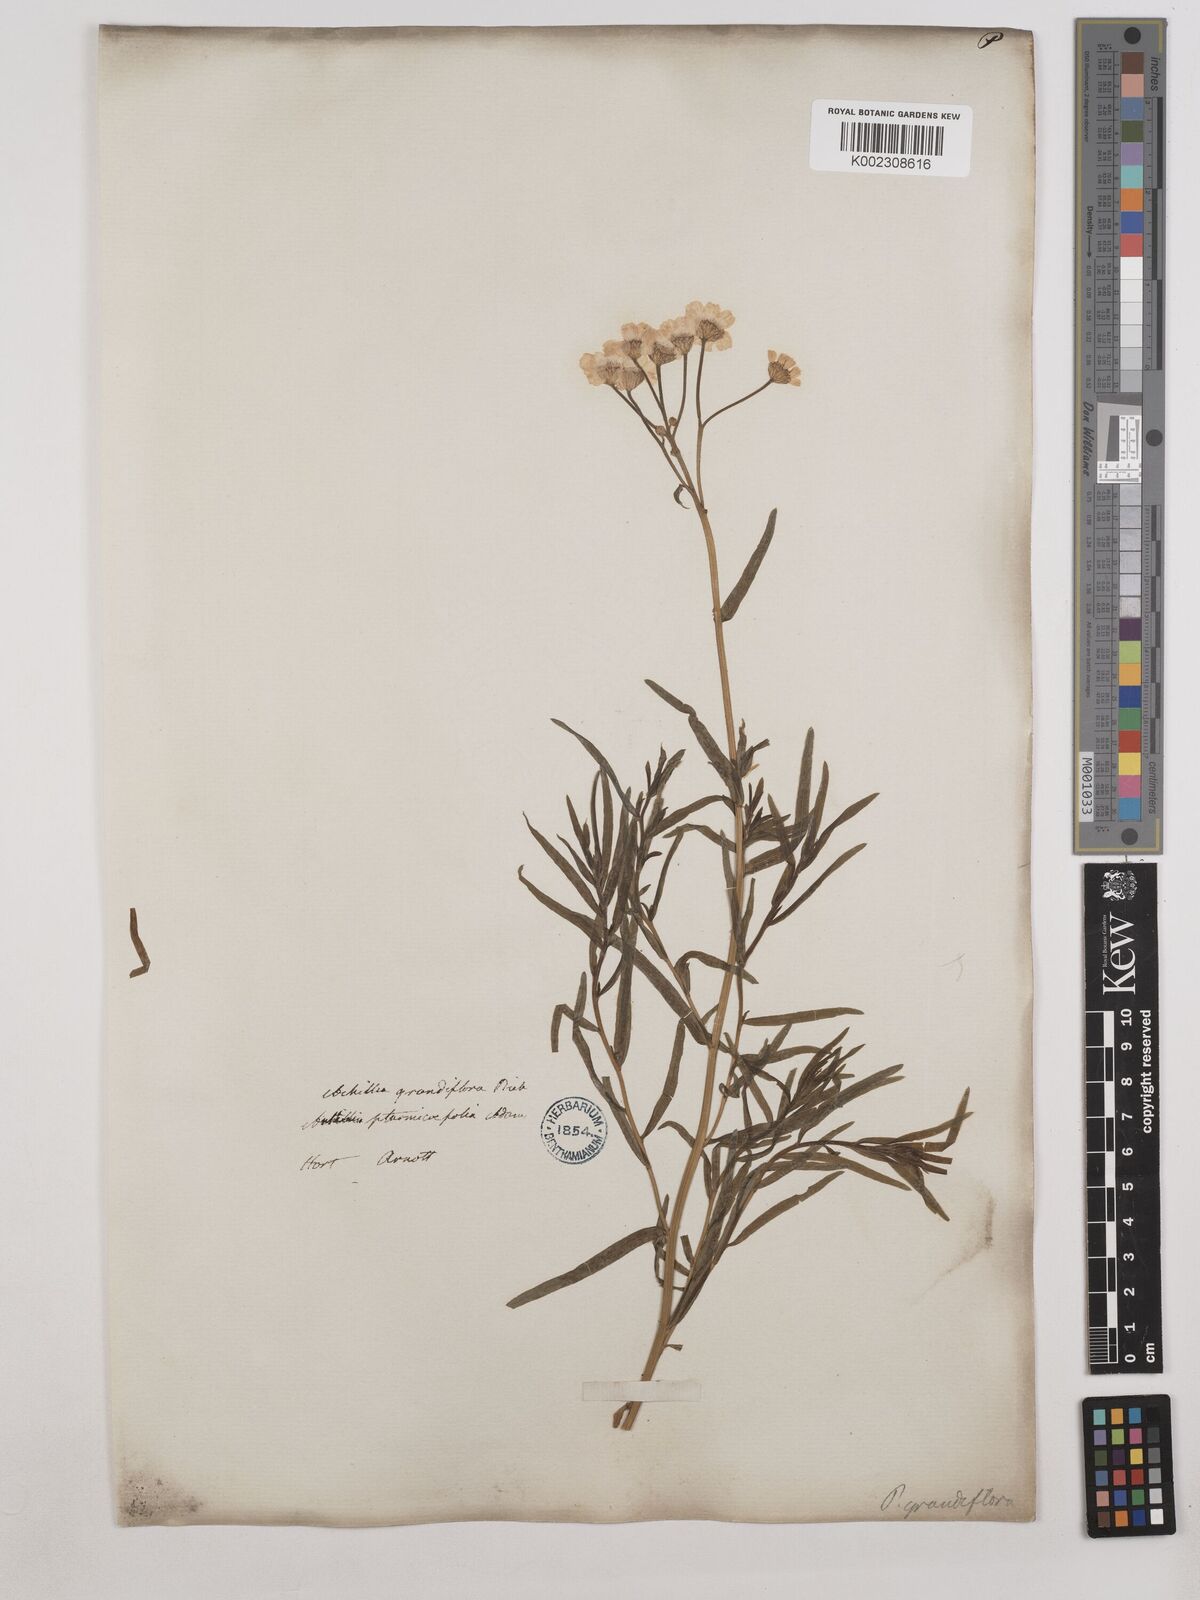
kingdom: Plantae
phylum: Tracheophyta
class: Magnoliopsida
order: Asterales
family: Asteraceae
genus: Achillea
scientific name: Achillea grandifolia
